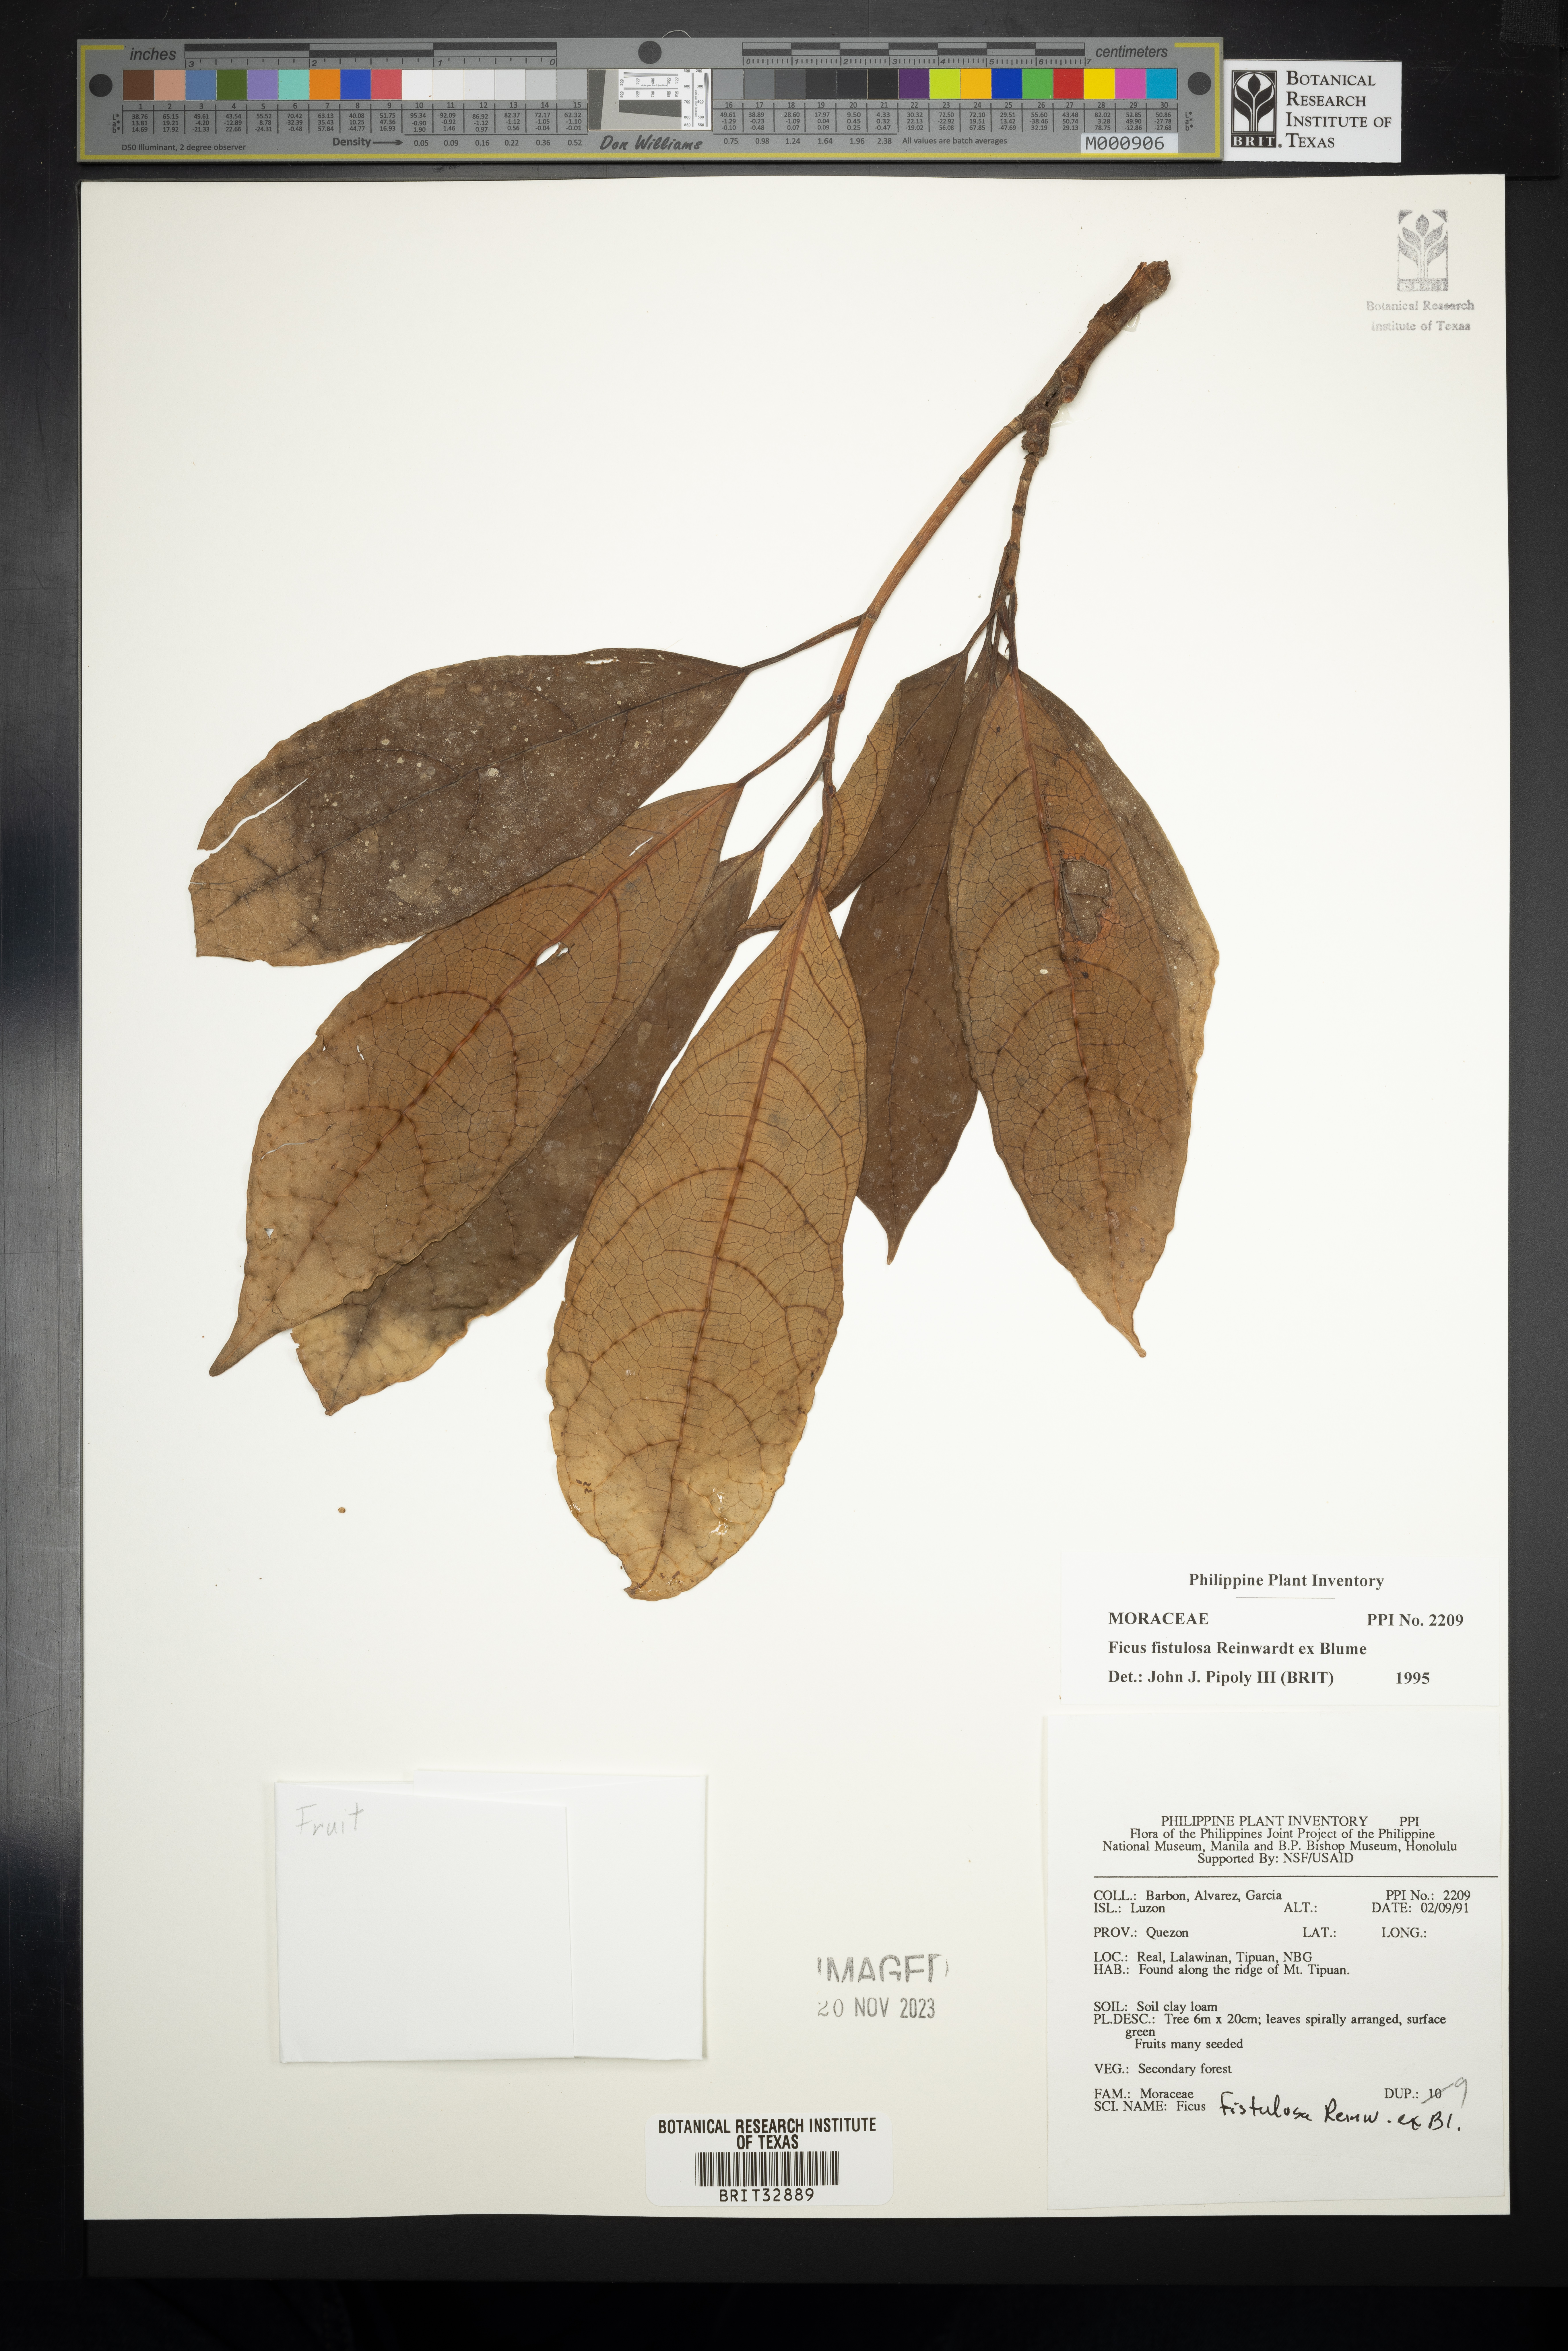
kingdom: Plantae
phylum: Tracheophyta
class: Magnoliopsida
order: Rosales
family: Moraceae
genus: Ficus
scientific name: Ficus fistulosa
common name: Figs
